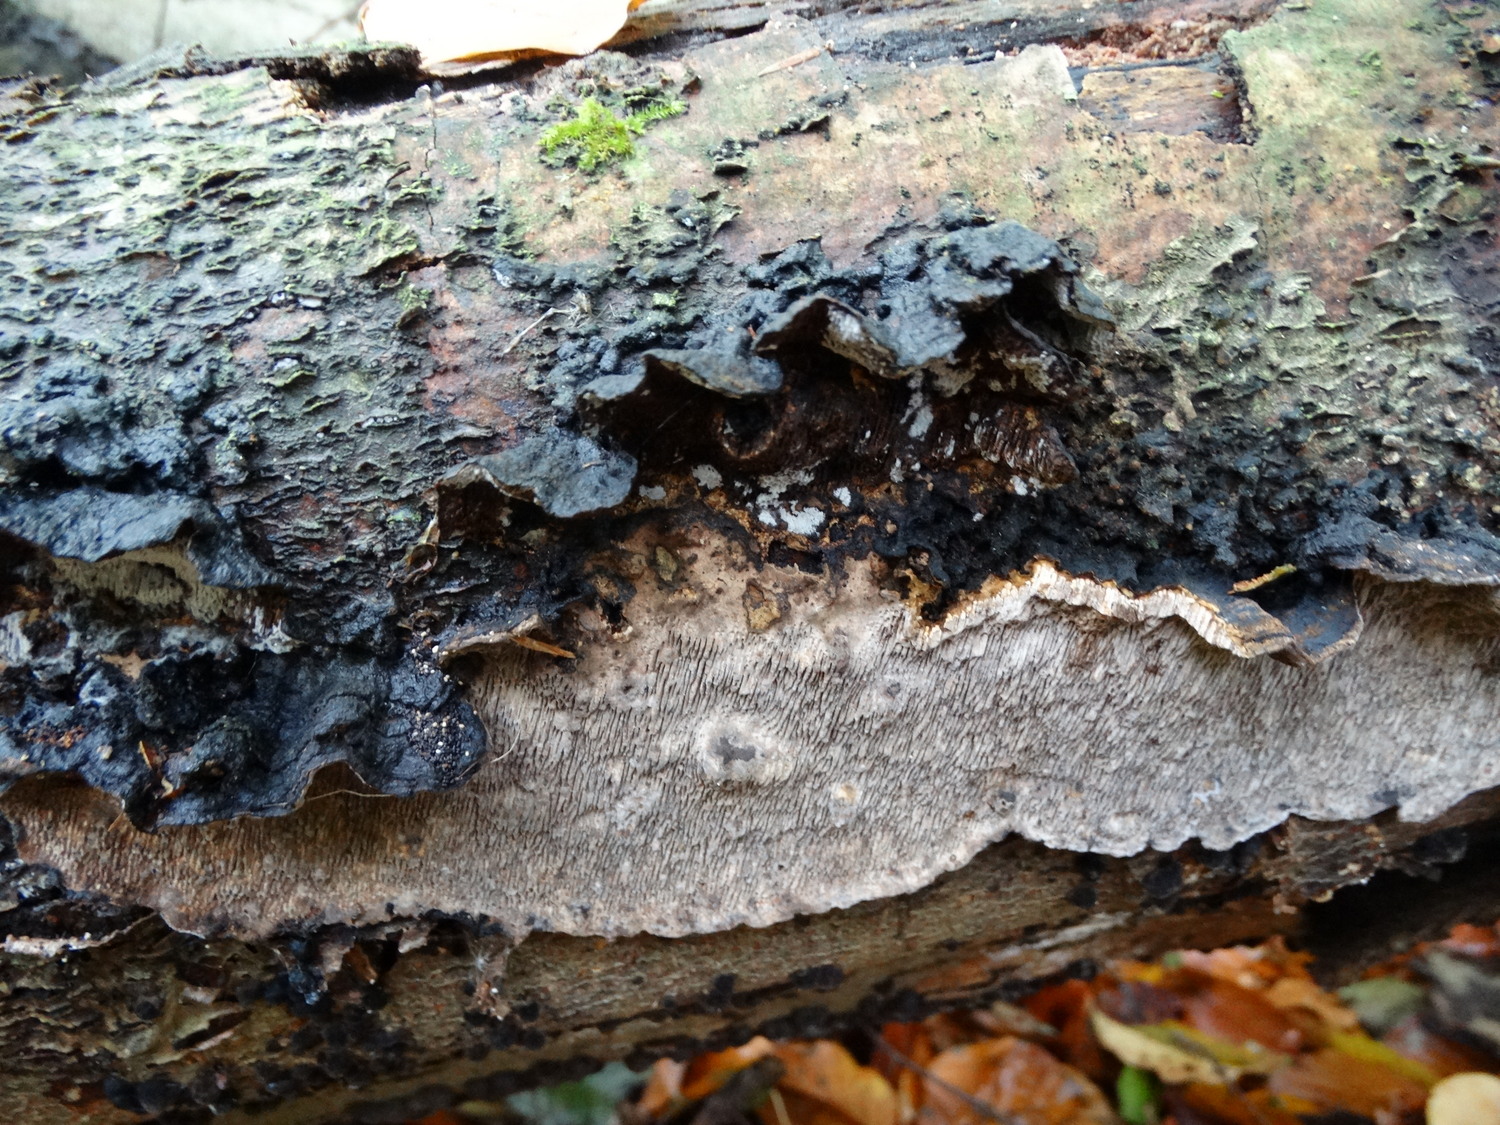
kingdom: Fungi
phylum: Basidiomycota
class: Agaricomycetes
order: Polyporales
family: Polyporaceae
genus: Podofomes
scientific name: Podofomes mollis
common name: blød begporesvamp
